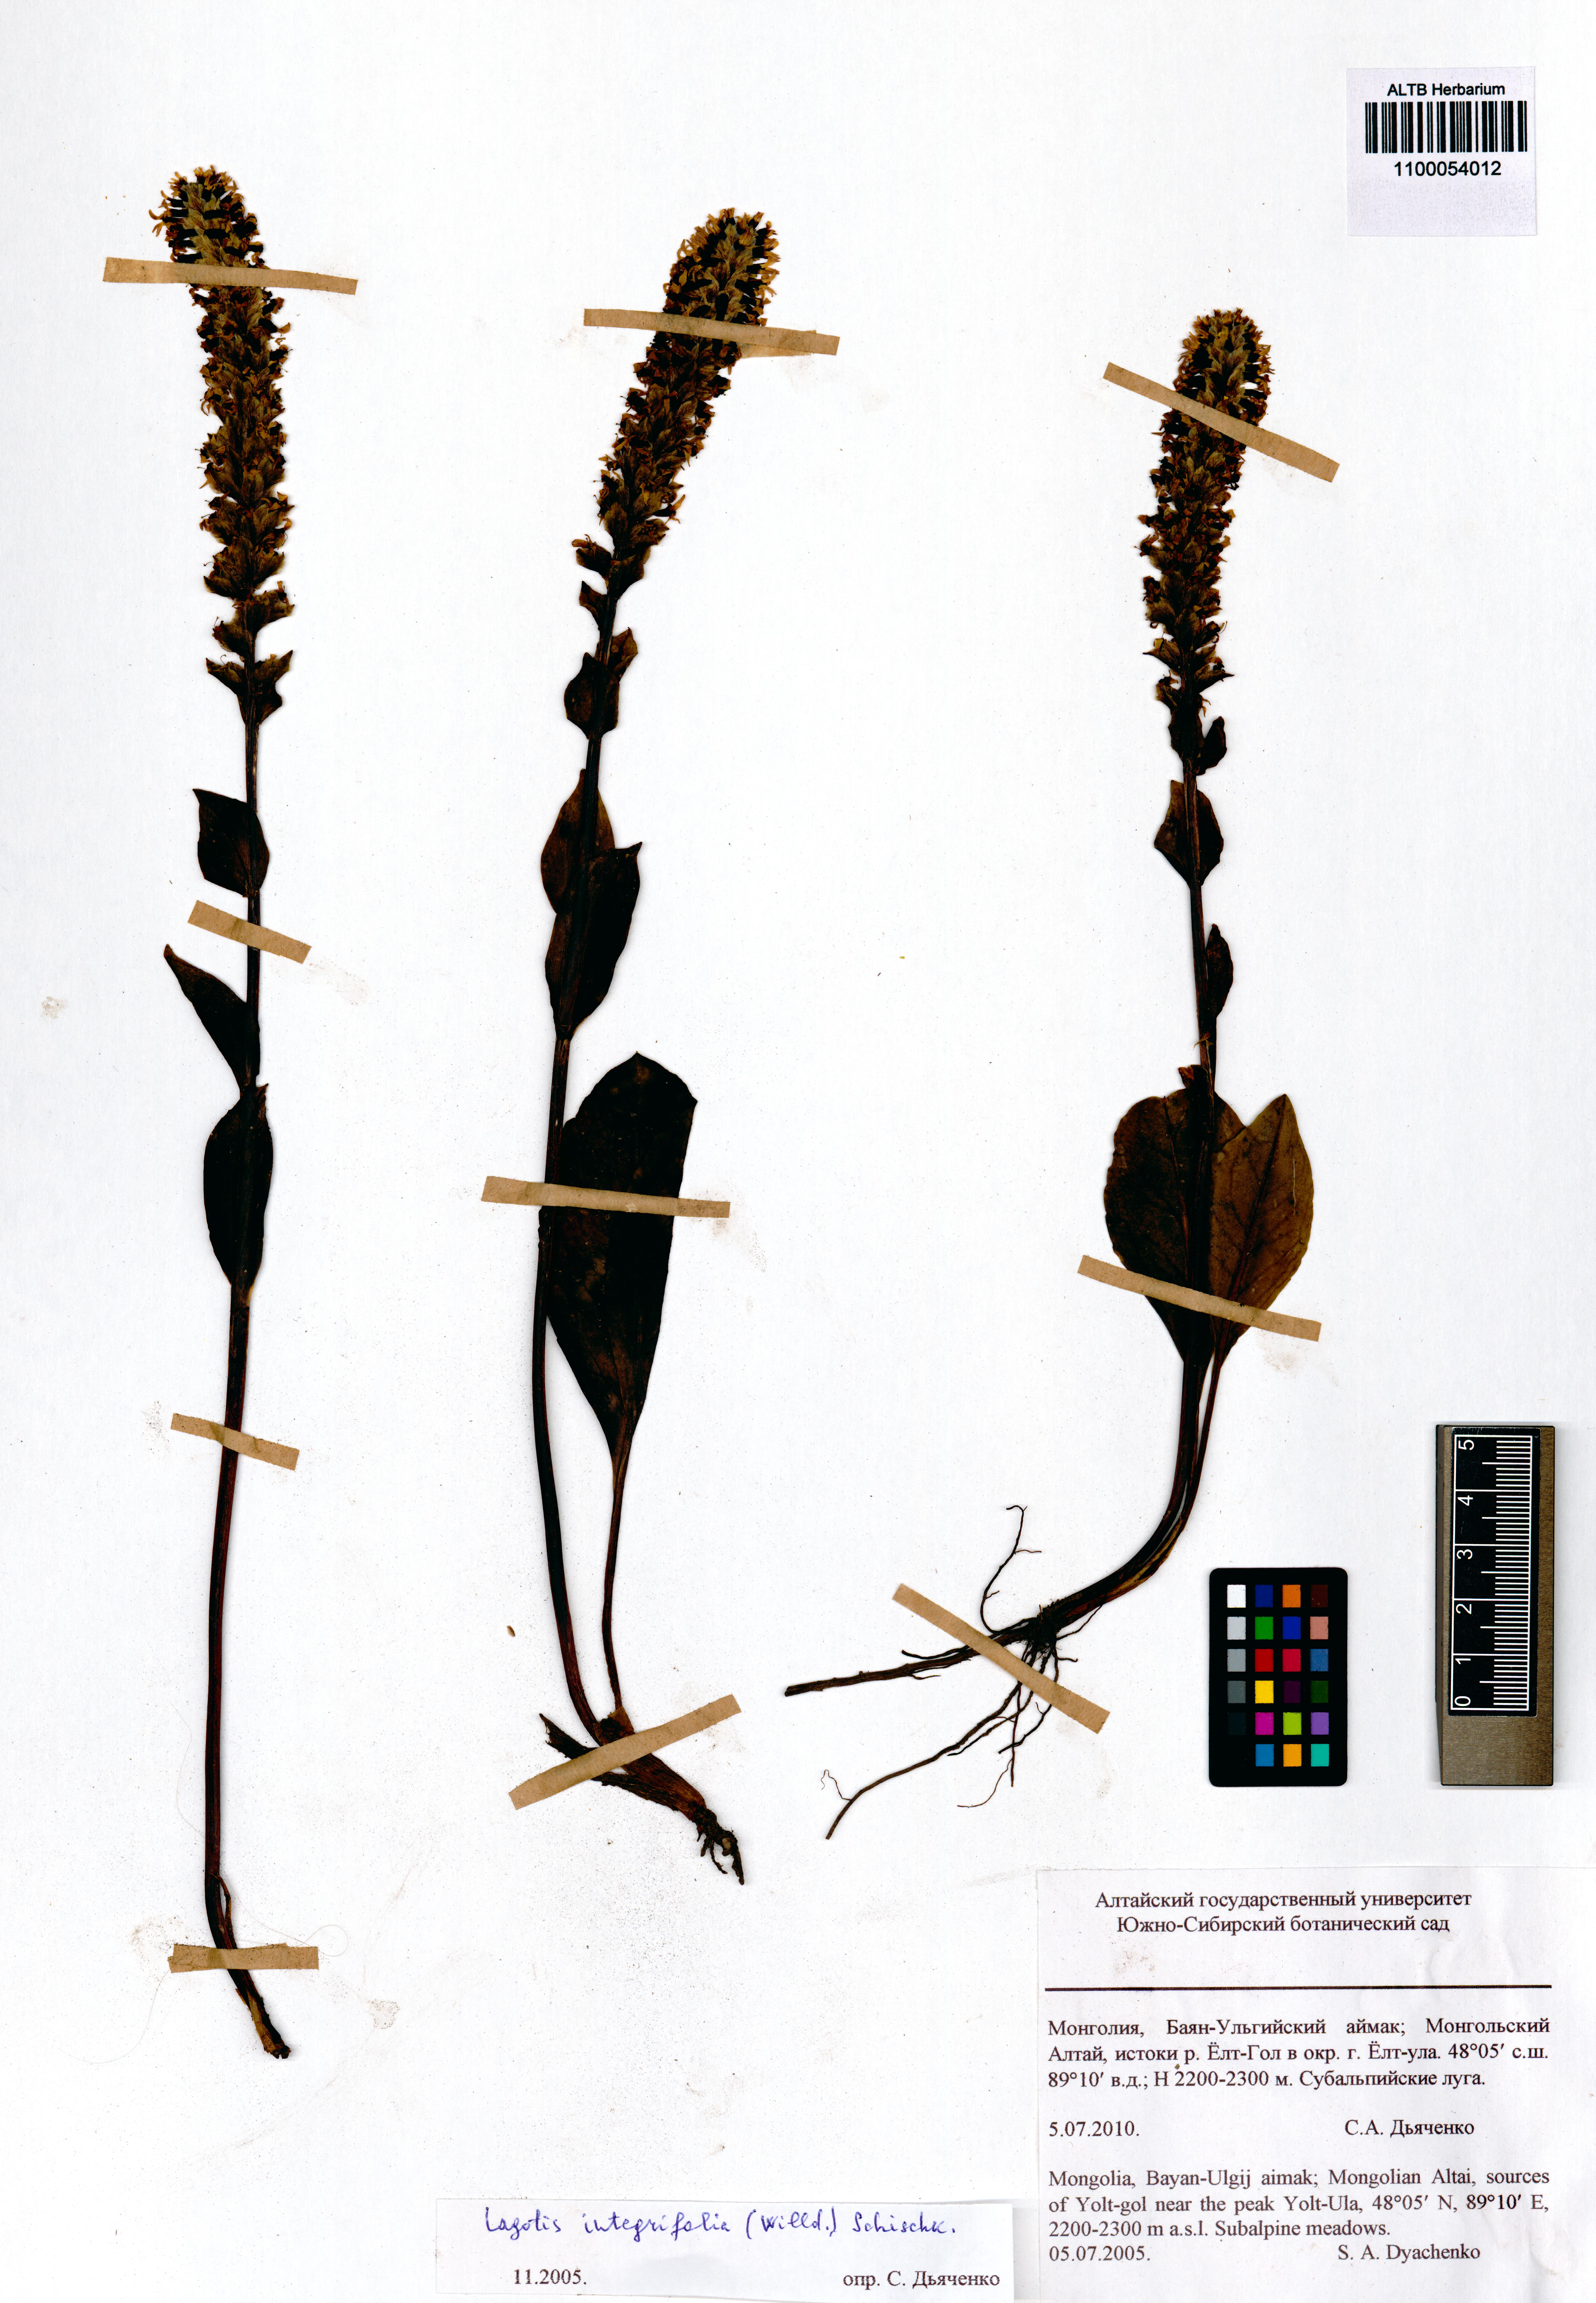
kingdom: Plantae
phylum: Tracheophyta
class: Magnoliopsida
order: Lamiales
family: Plantaginaceae
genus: Lagotis
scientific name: Lagotis integrifolia
